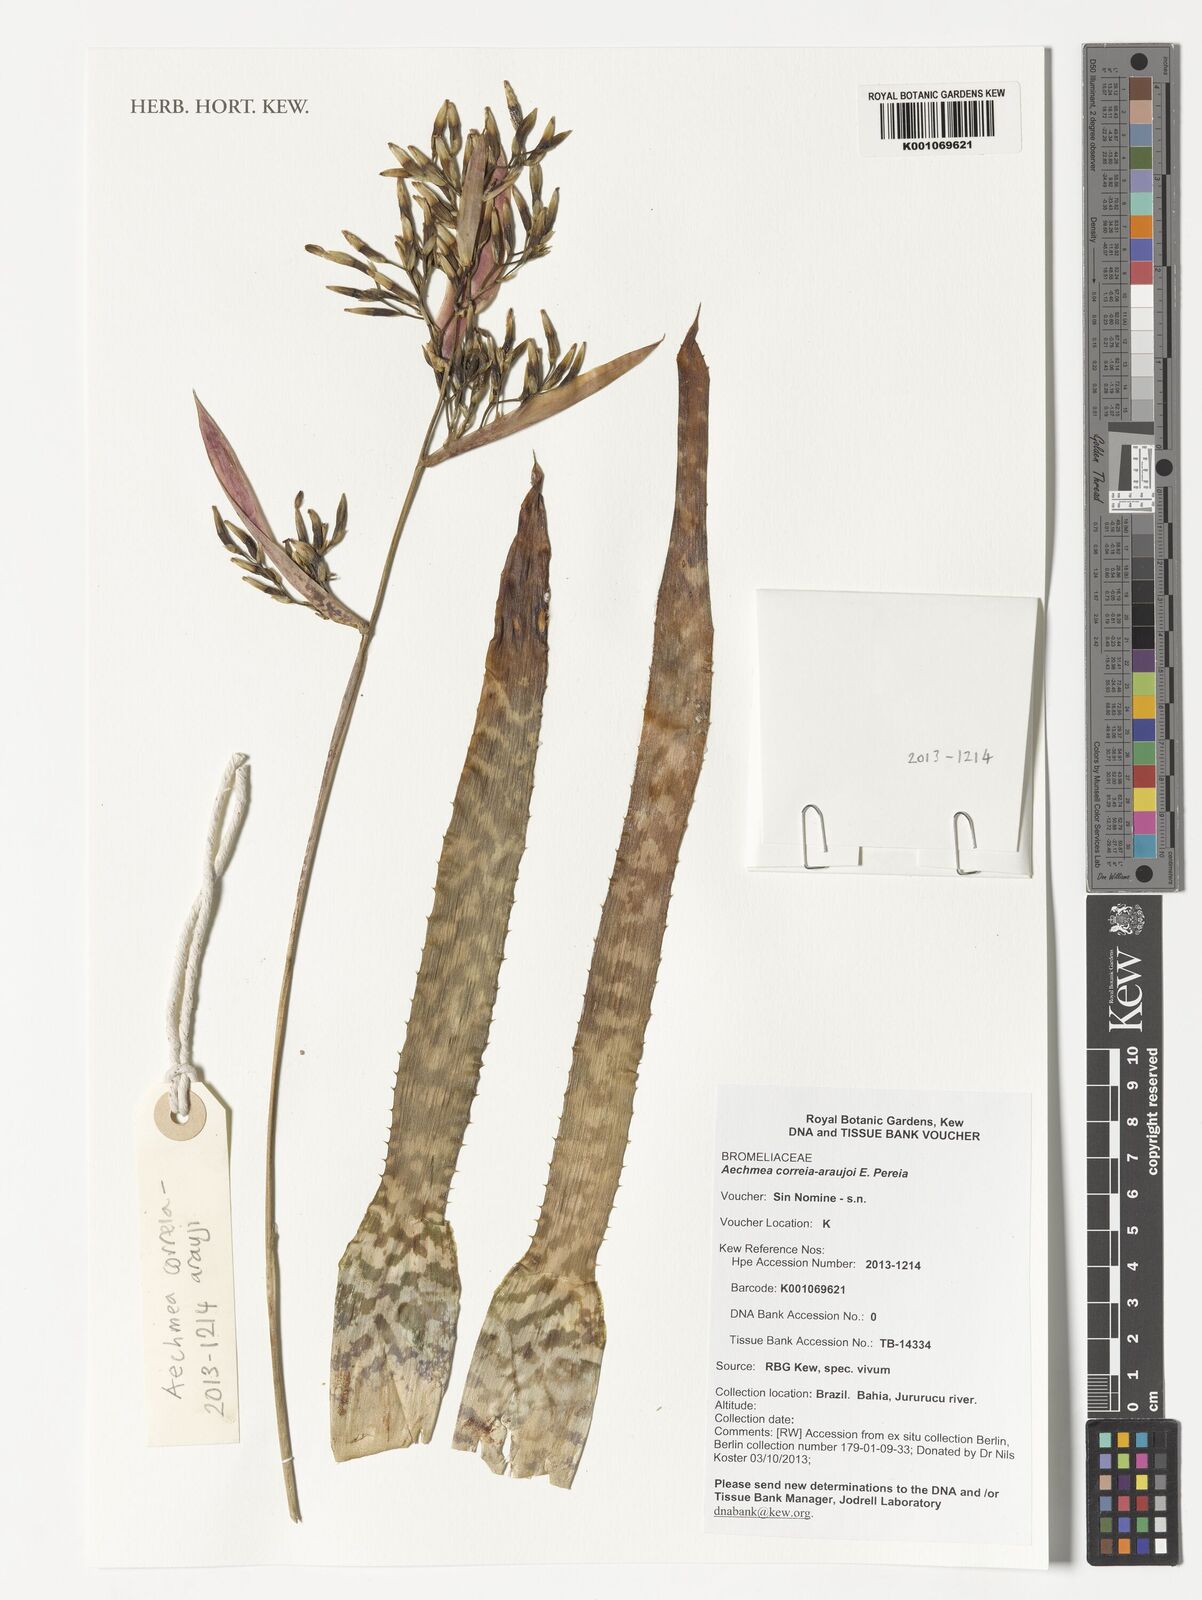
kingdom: Plantae
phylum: Tracheophyta
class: Liliopsida
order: Poales
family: Bromeliaceae
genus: Aechmea
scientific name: Aechmea correia-araujoi
